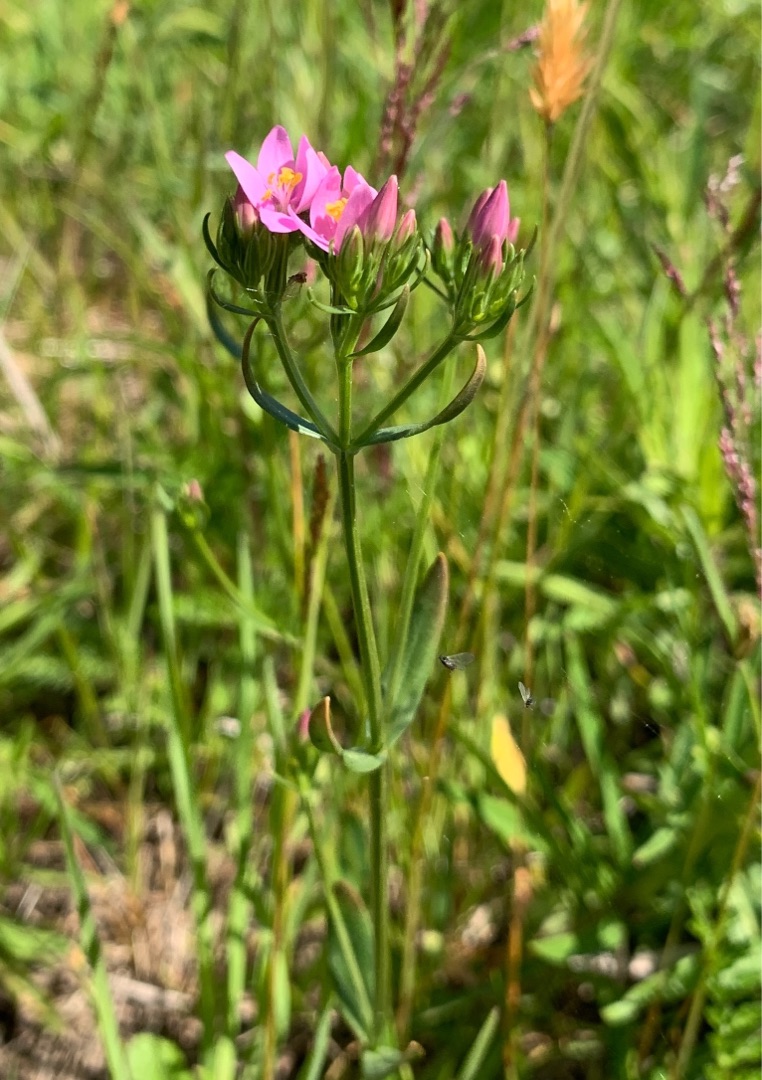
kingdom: Plantae
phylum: Tracheophyta
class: Magnoliopsida
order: Gentianales
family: Gentianaceae
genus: Centaurium
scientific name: Centaurium littorale
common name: Strand-tusindgylden
